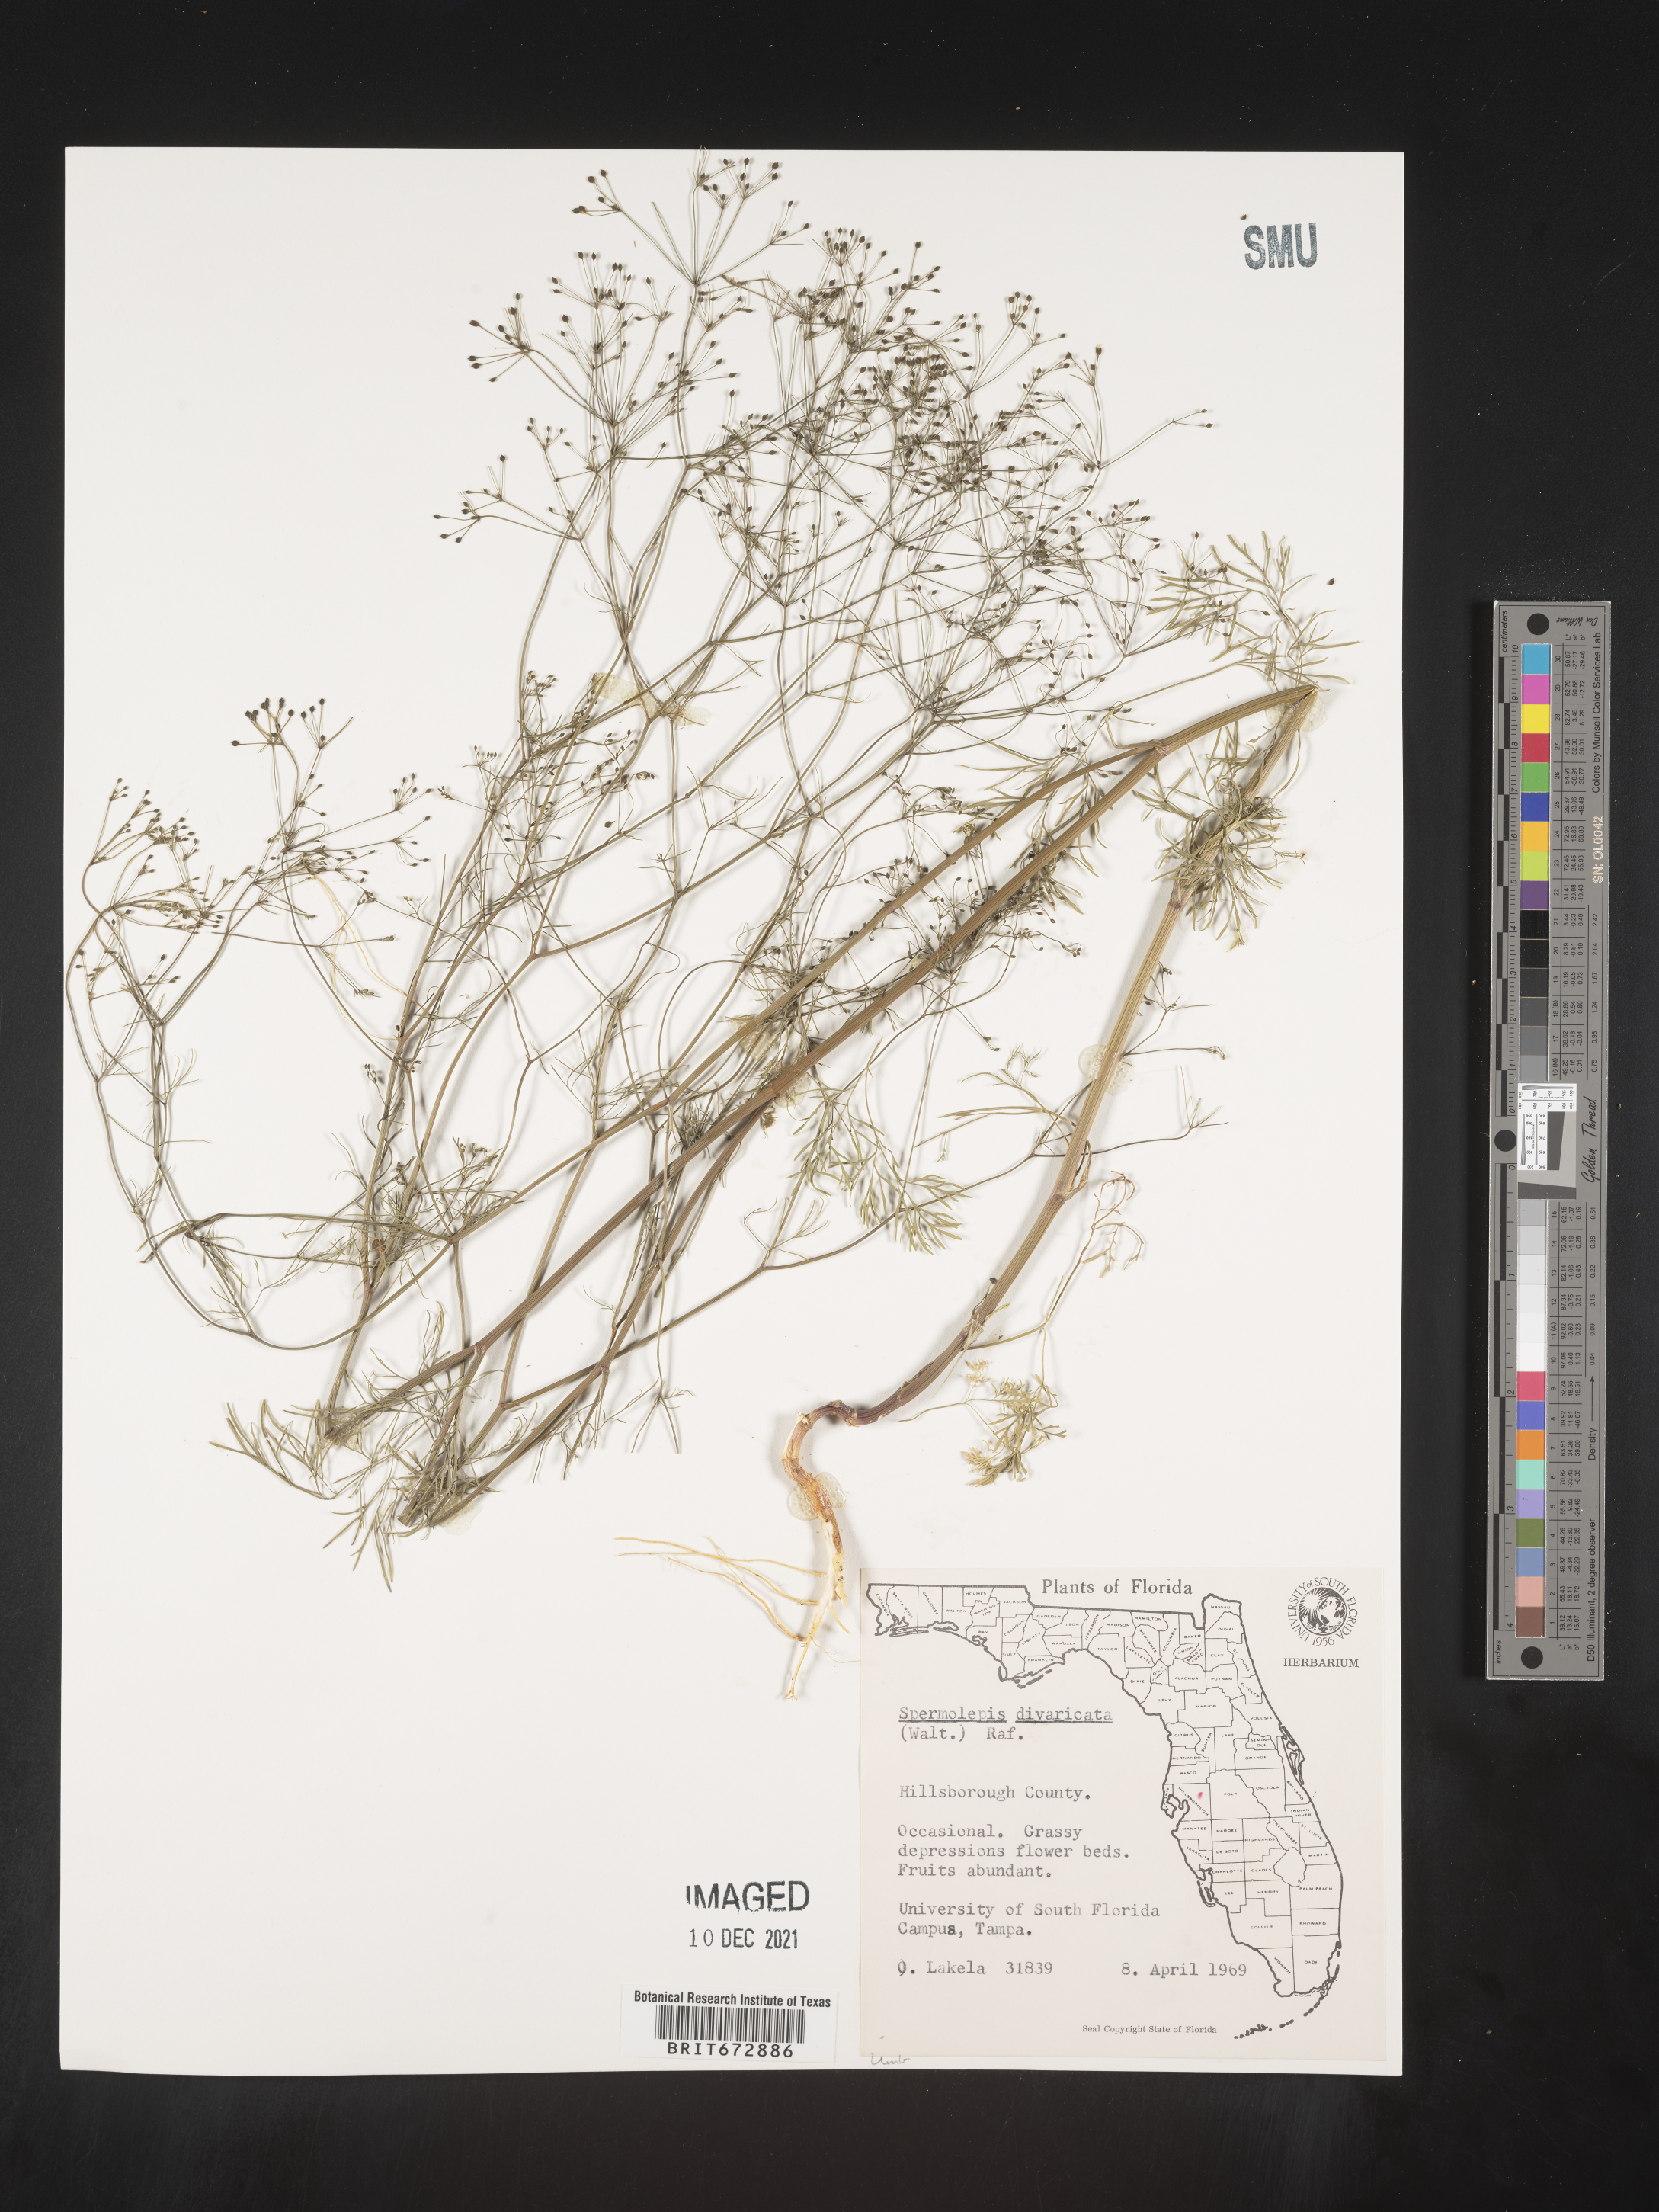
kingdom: Plantae
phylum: Tracheophyta
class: Magnoliopsida
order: Apiales
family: Apiaceae
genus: Spermolepis
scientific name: Spermolepis divaricata
